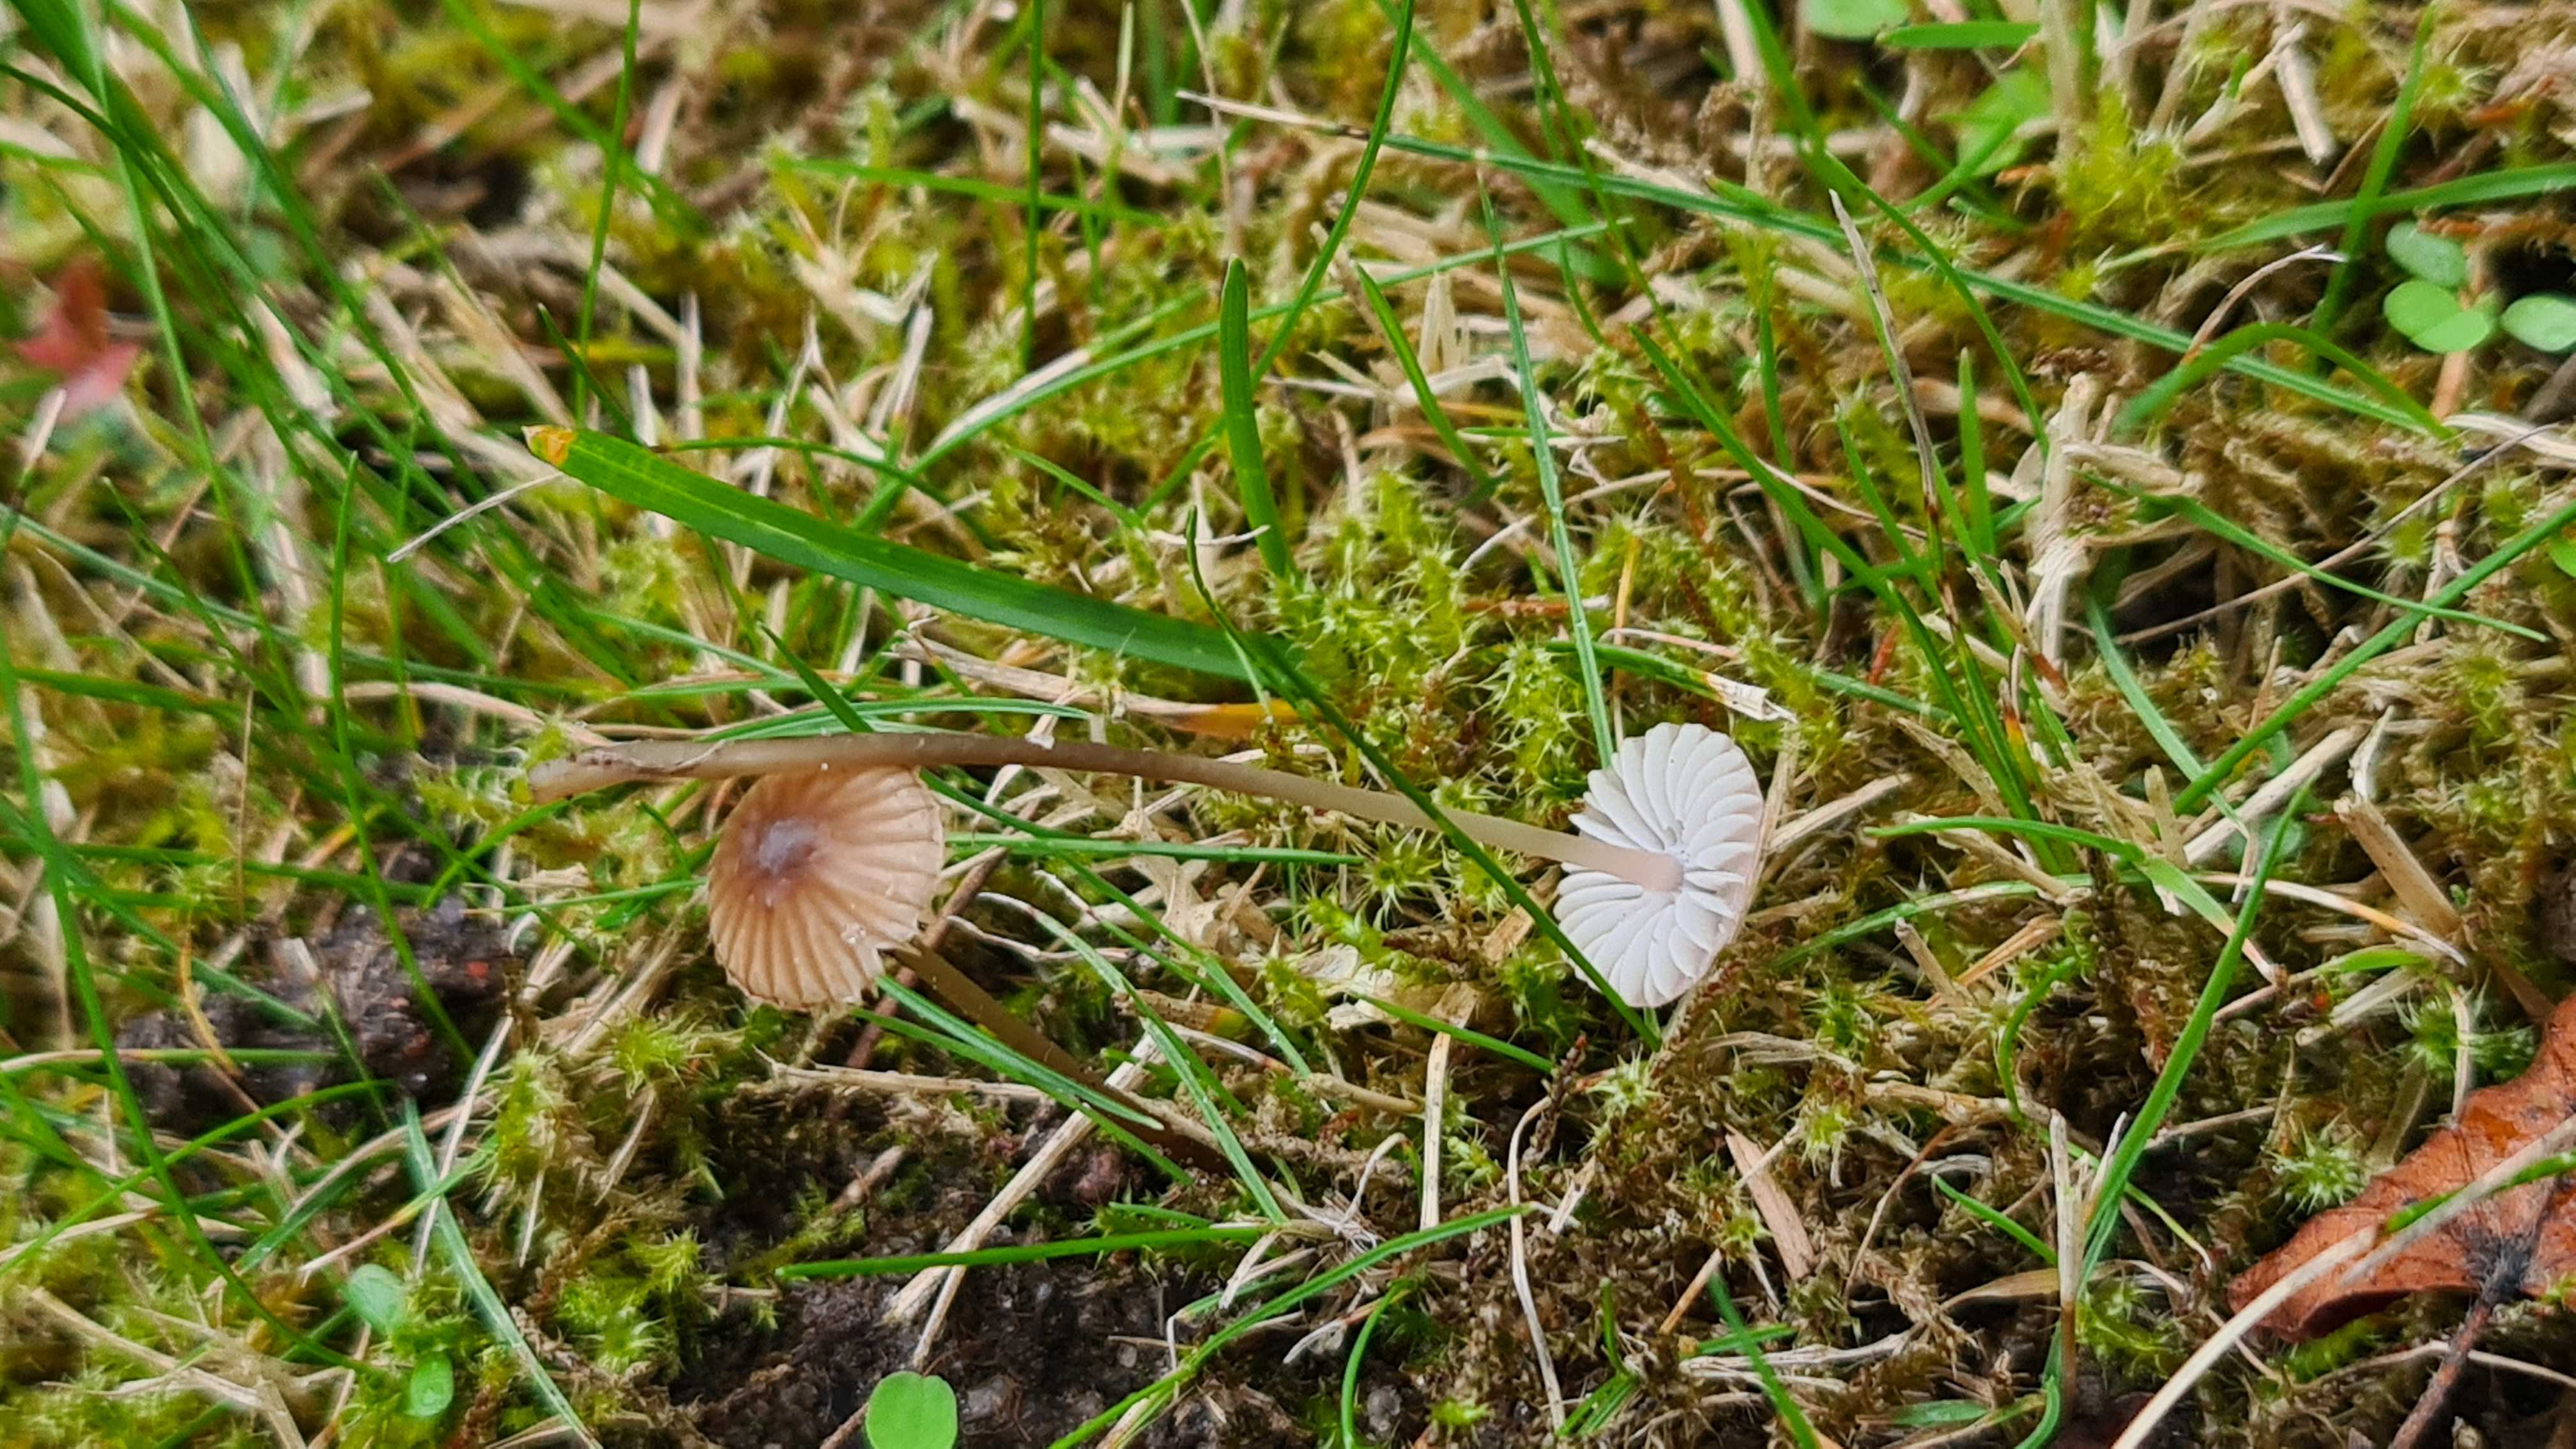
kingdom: Fungi
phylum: Basidiomycota
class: Agaricomycetes
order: Agaricales
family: Mycenaceae
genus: Mycena
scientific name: Mycena olivaceomarginata
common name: brunægget huesvamp
